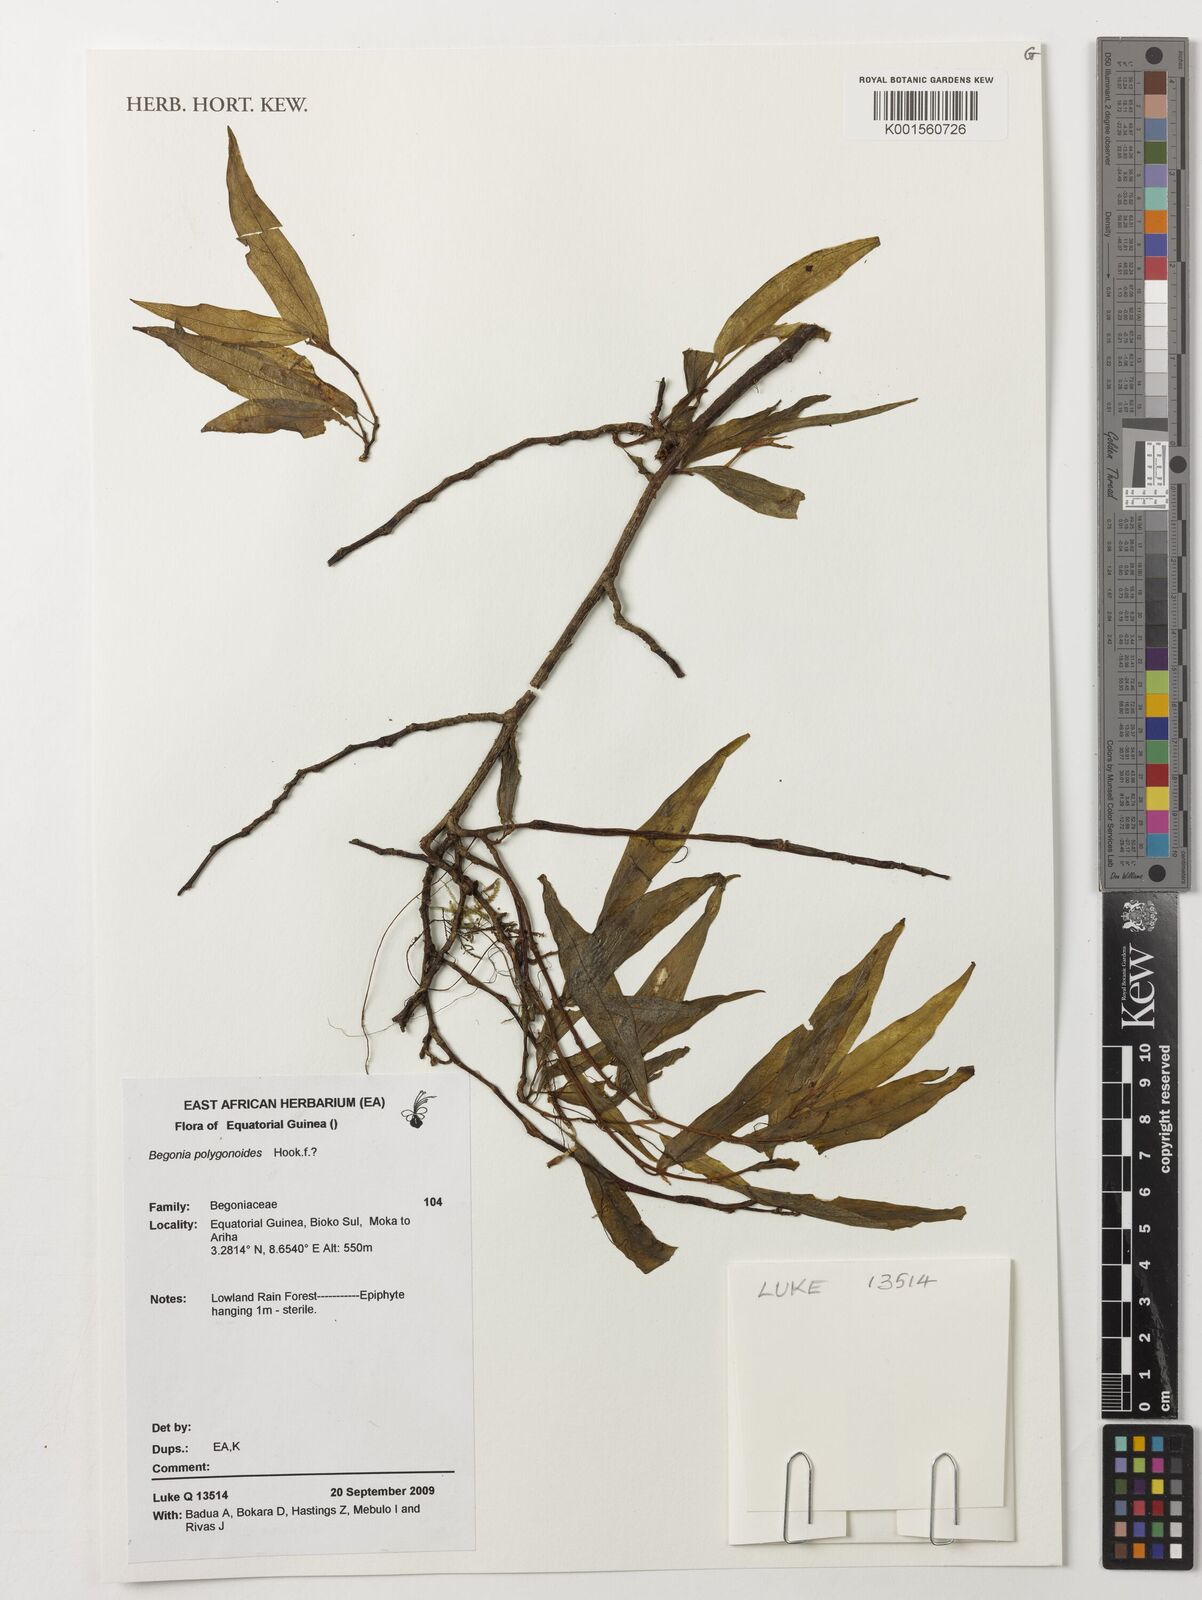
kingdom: Plantae
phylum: Tracheophyta
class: Magnoliopsida
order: Cucurbitales
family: Begoniaceae
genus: Begonia
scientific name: Begonia polygonoides
